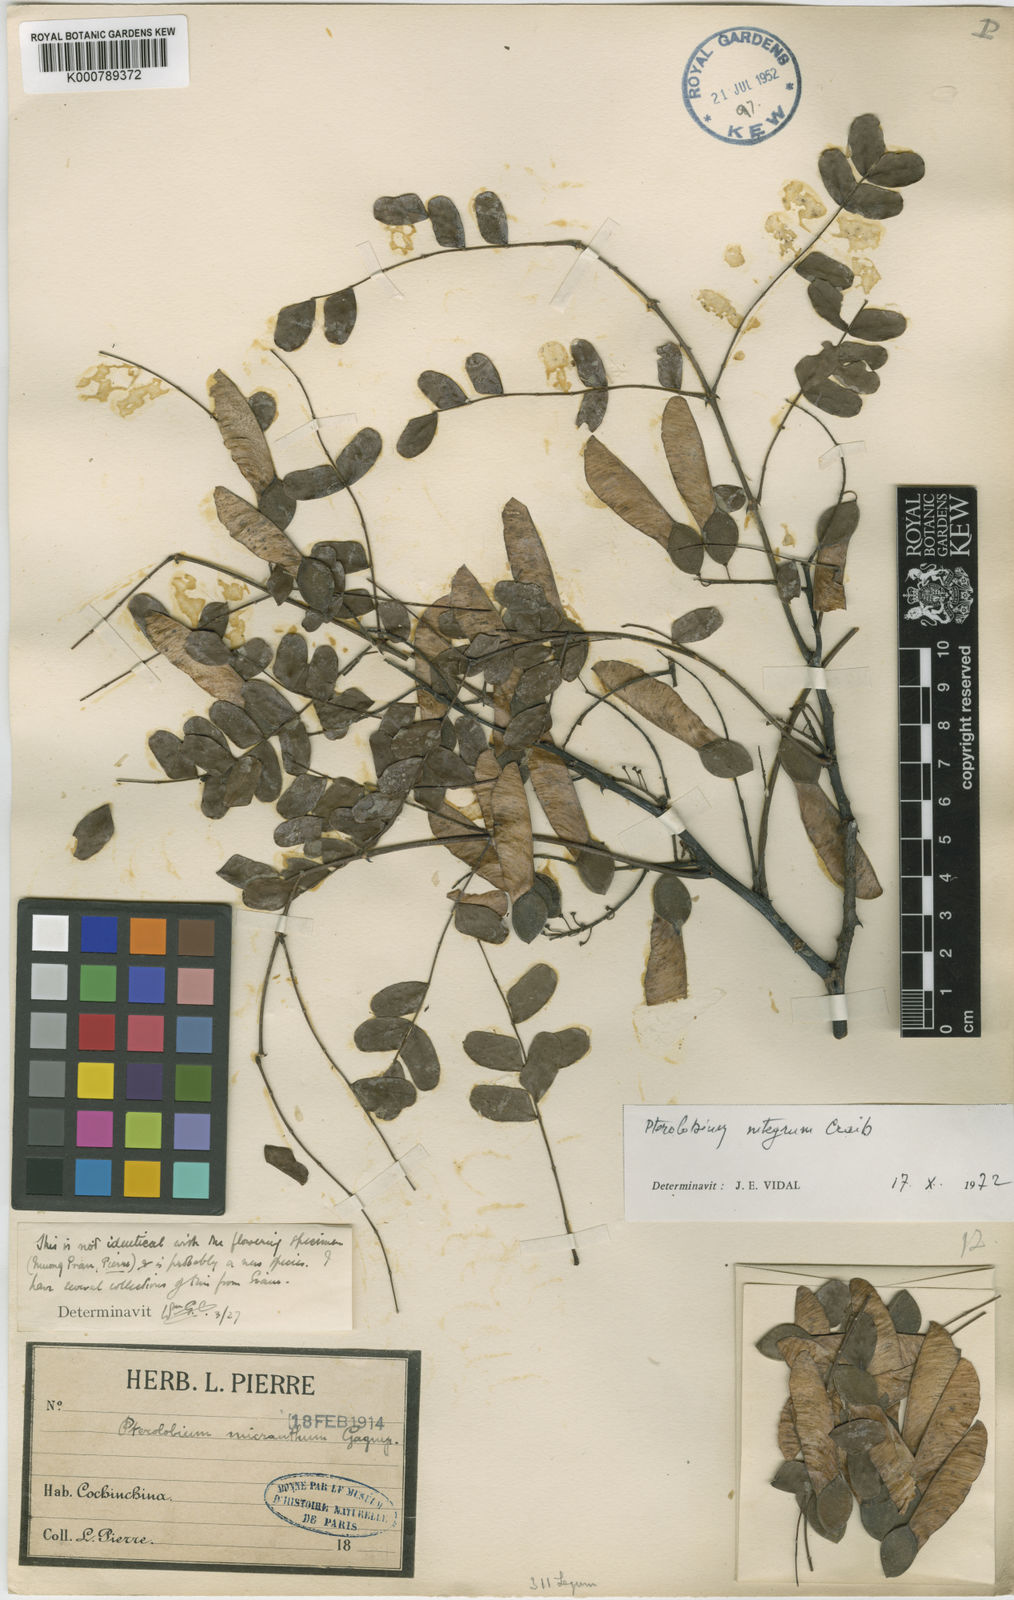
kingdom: Plantae
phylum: Tracheophyta
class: Magnoliopsida
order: Fabales
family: Fabaceae
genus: Pterolobium
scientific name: Pterolobium integrum
